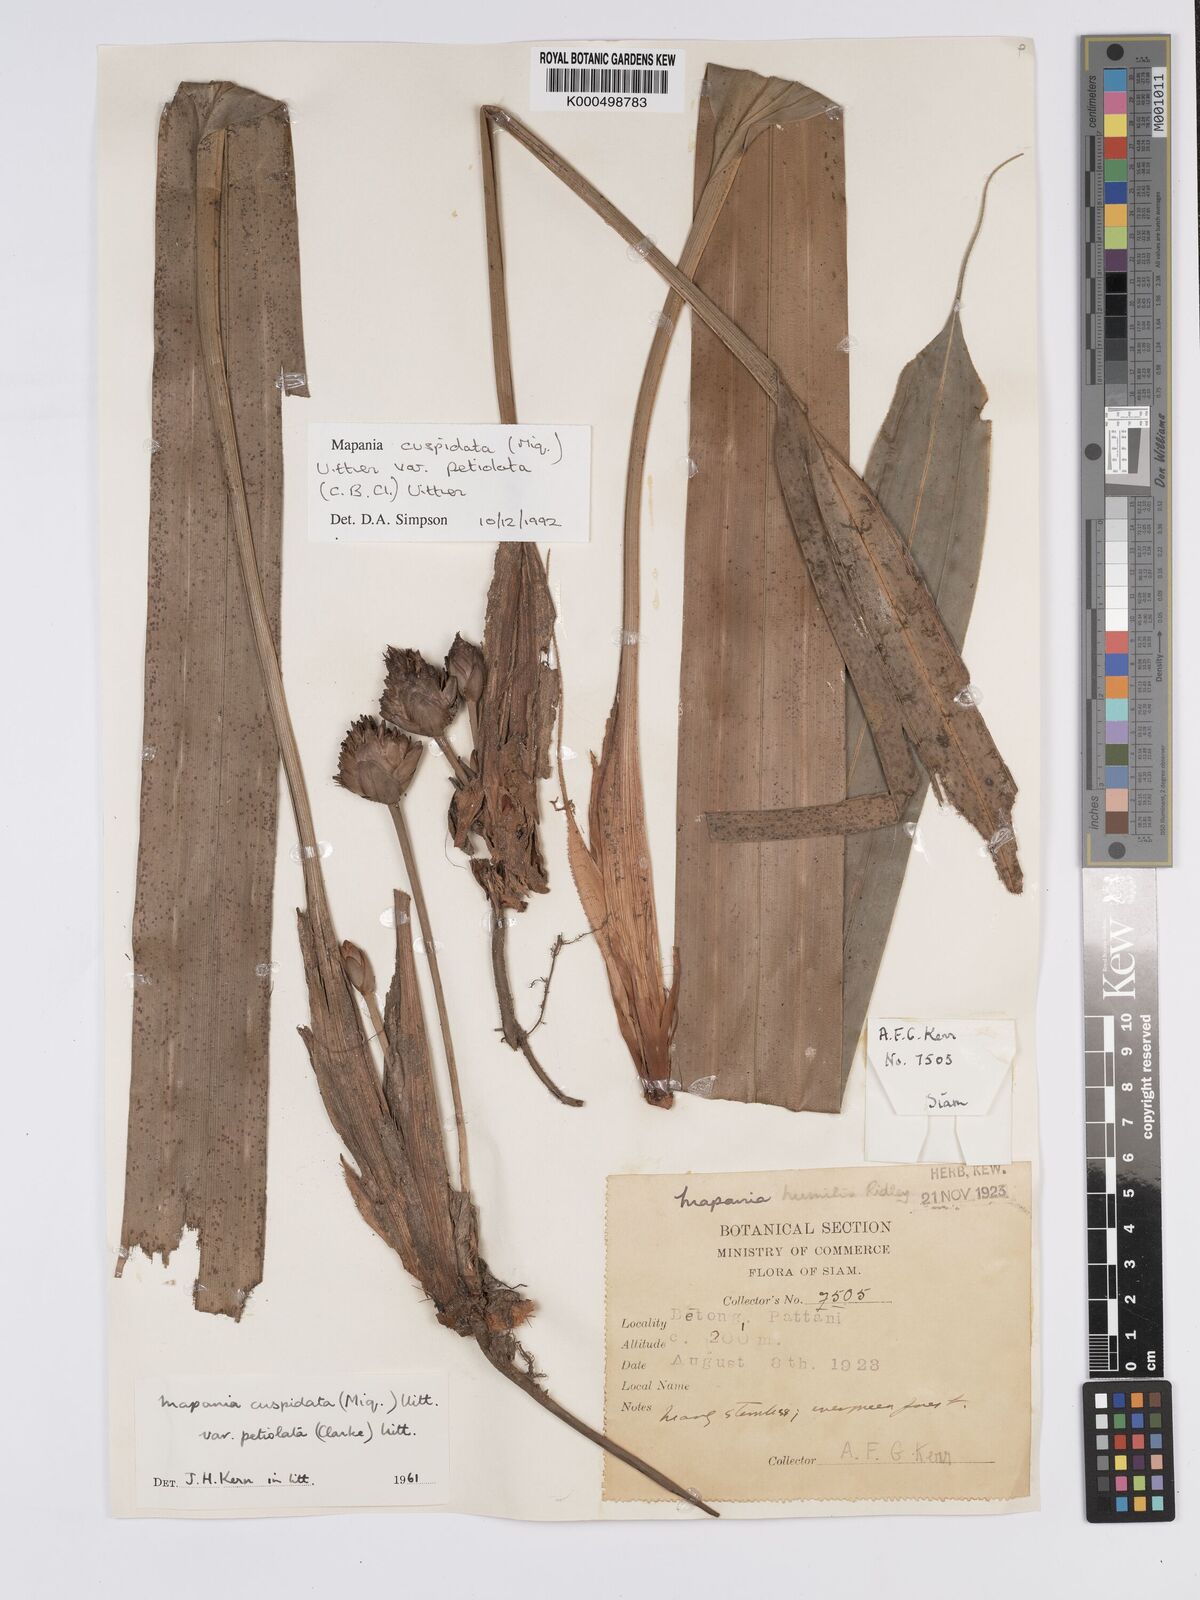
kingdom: Plantae
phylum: Tracheophyta
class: Liliopsida
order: Poales
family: Cyperaceae
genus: Mapania
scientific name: Mapania cuspidata
